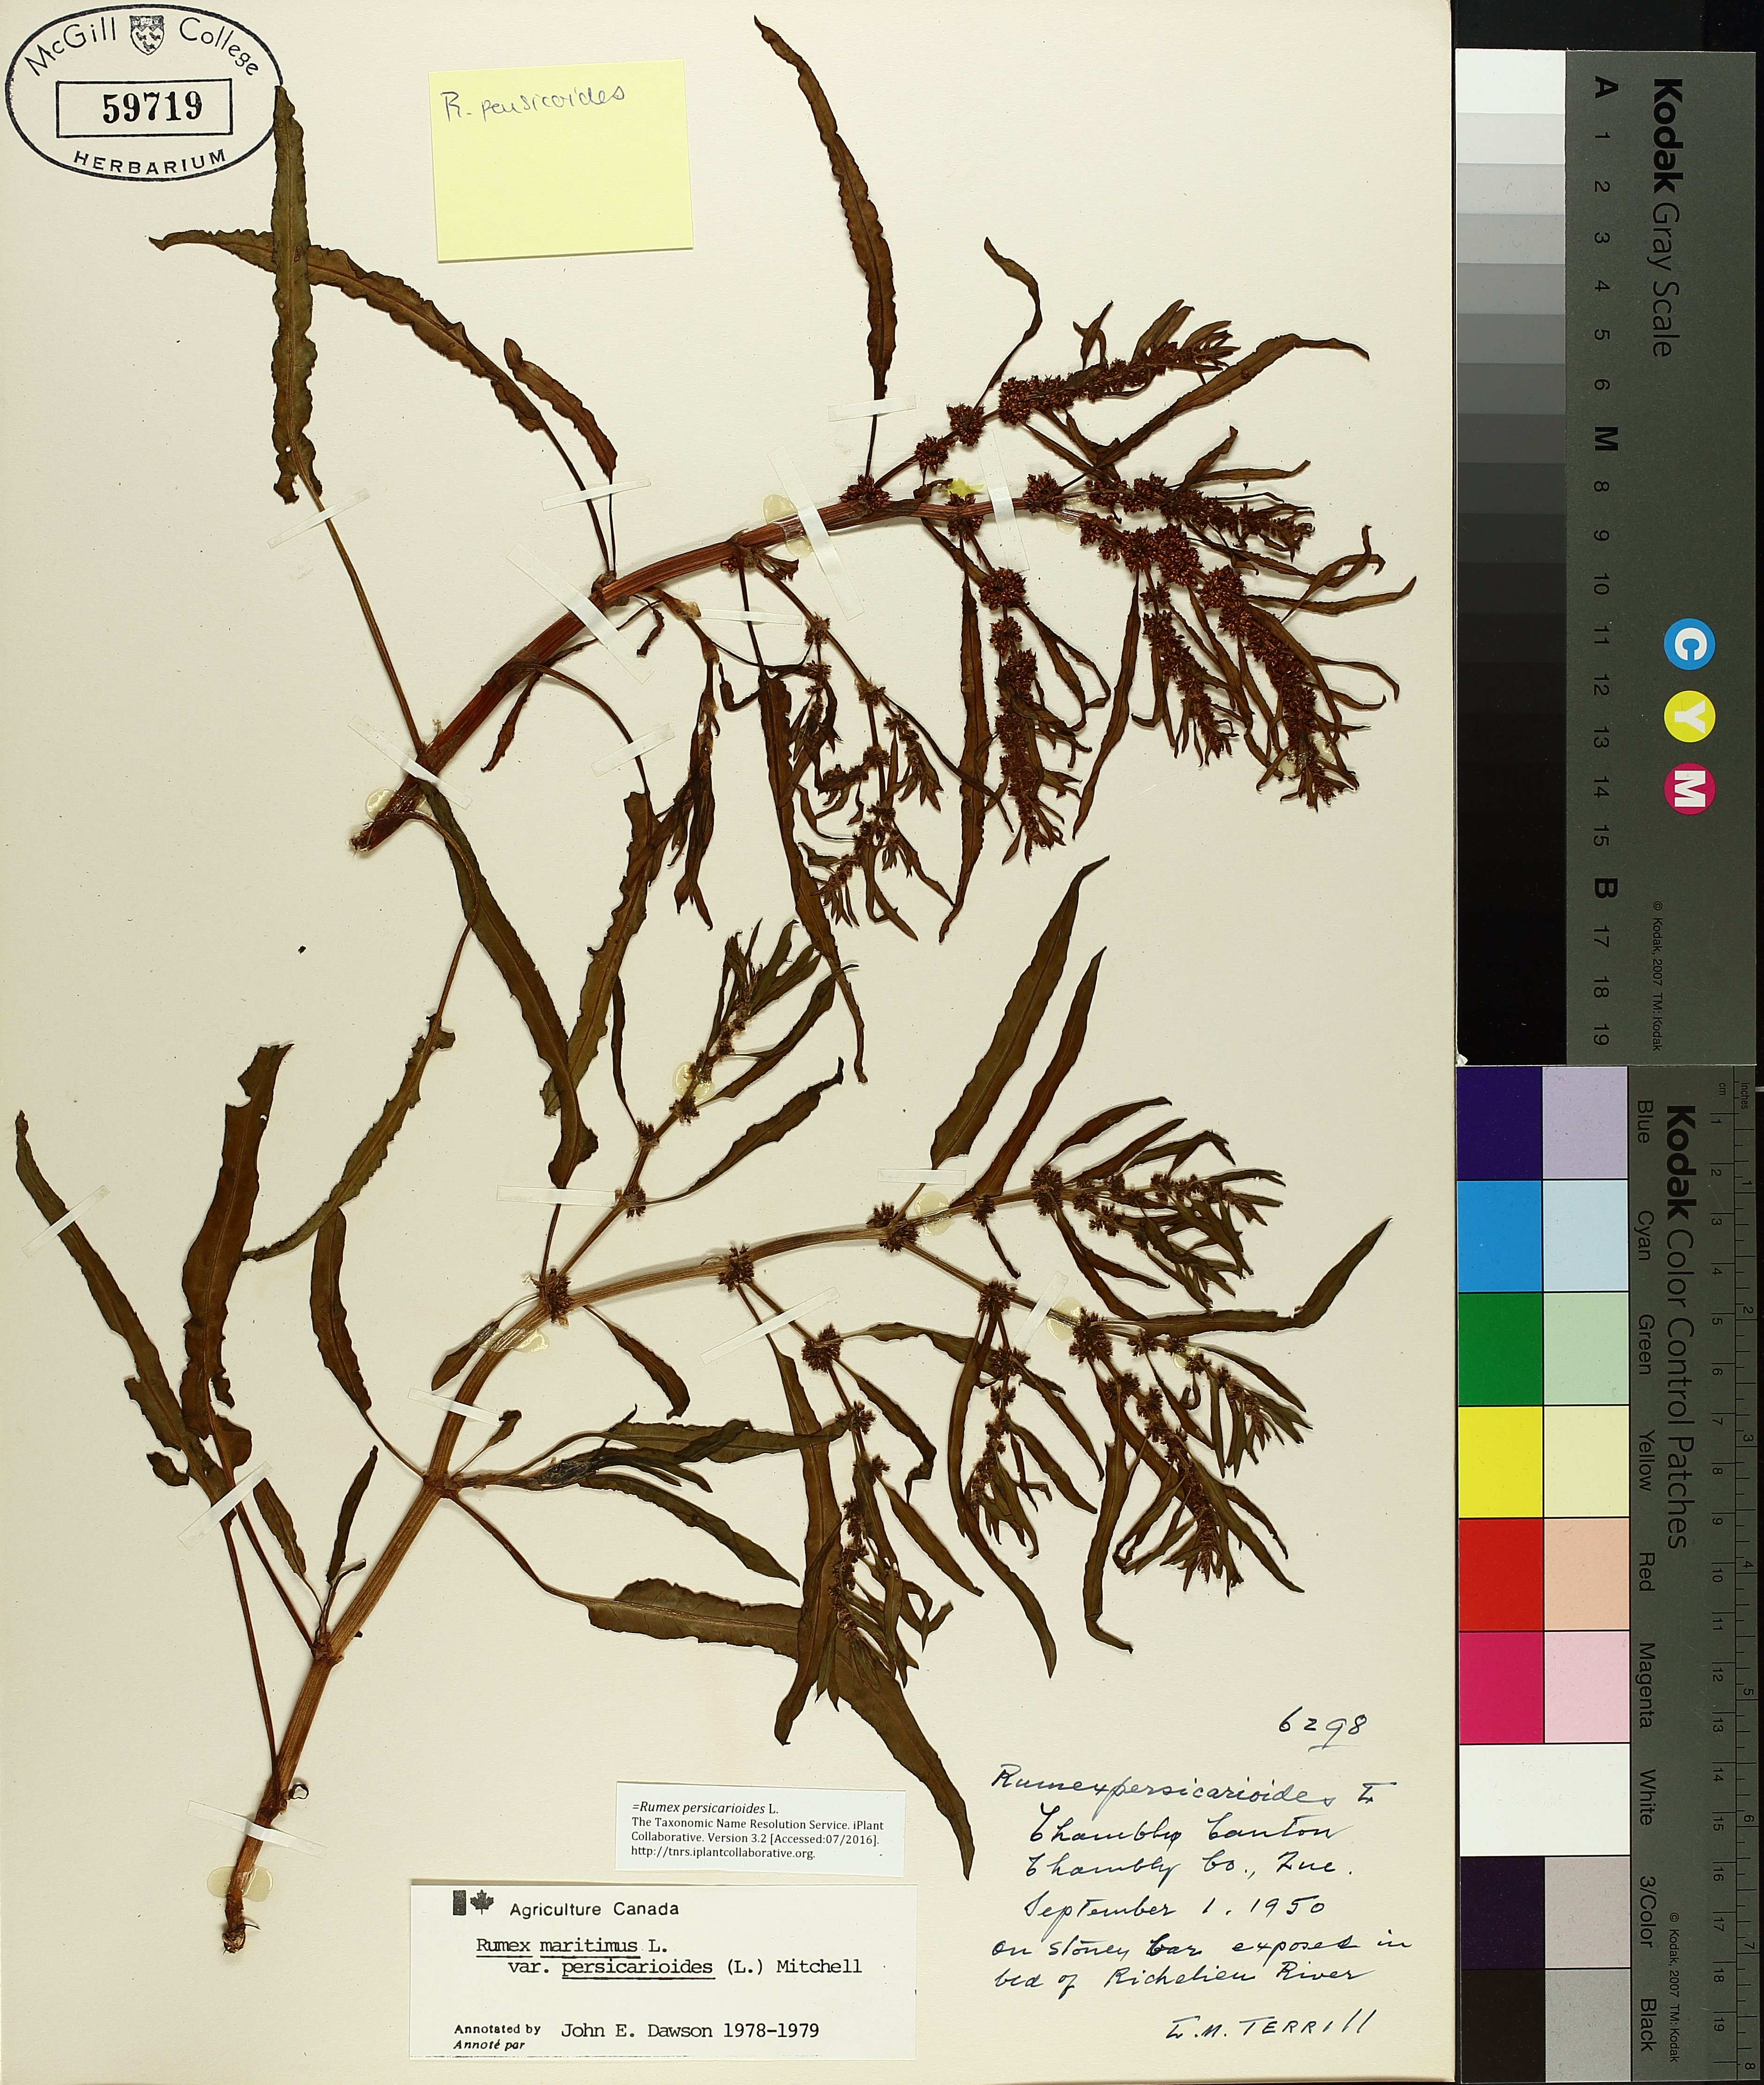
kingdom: Plantae
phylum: Tracheophyta
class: Magnoliopsida
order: Caryophyllales
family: Polygonaceae
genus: Rumex
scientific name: Rumex persicarioides
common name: Peach-leaved dock
